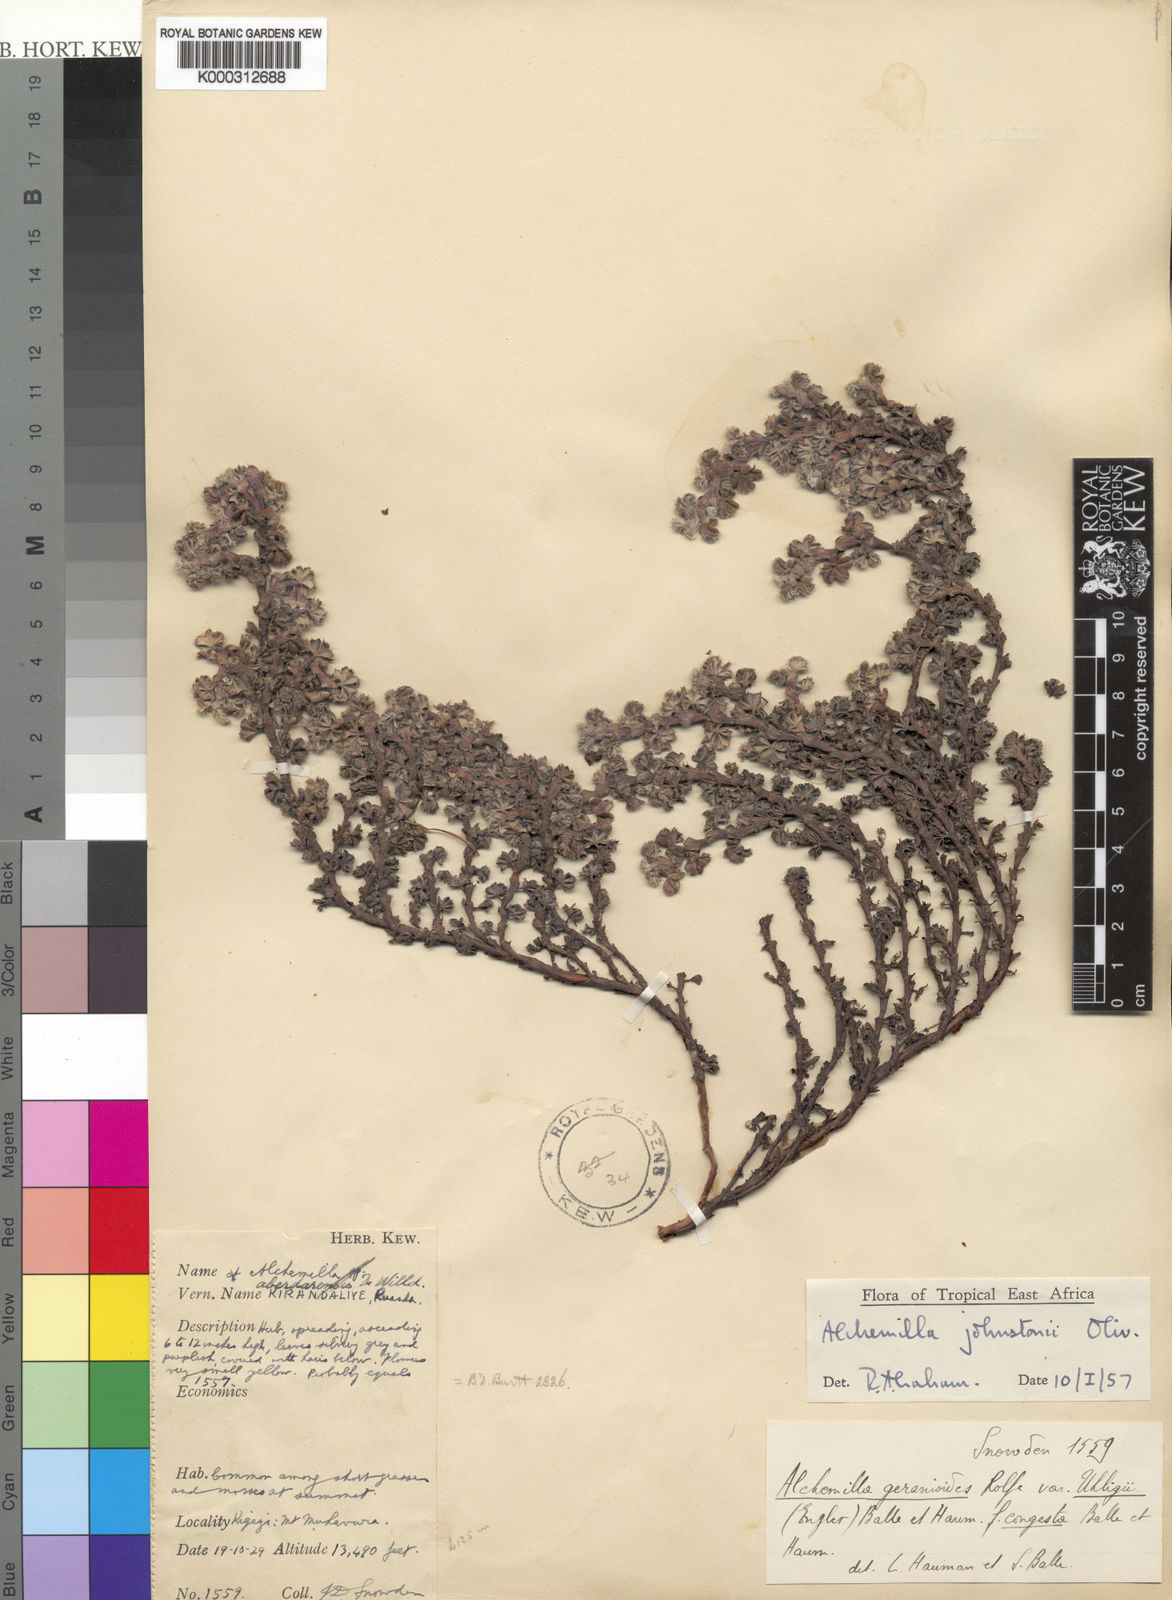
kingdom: Plantae
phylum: Tracheophyta
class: Magnoliopsida
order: Rosales
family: Rosaceae
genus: Alchemilla
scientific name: Alchemilla johnstonii
